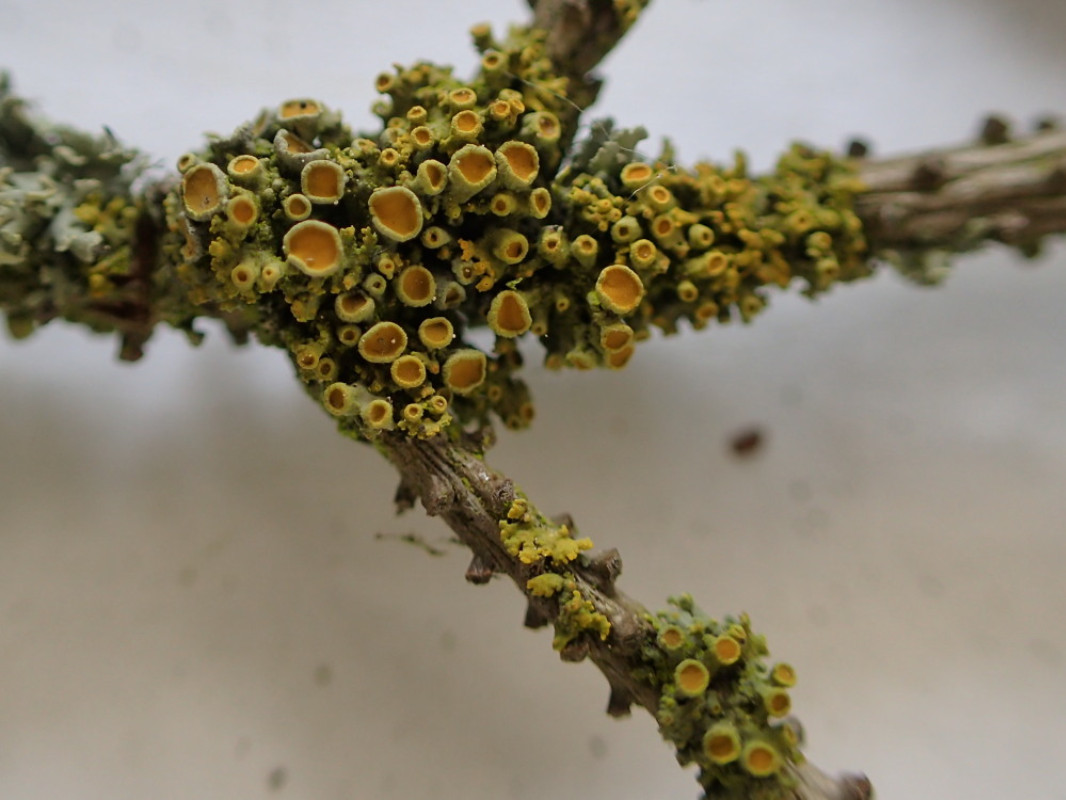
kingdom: Fungi
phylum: Ascomycota
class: Lecanoromycetes
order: Teloschistales
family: Teloschistaceae
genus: Polycauliona
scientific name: Polycauliona polycarpa
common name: mangefrugtet orangelav
